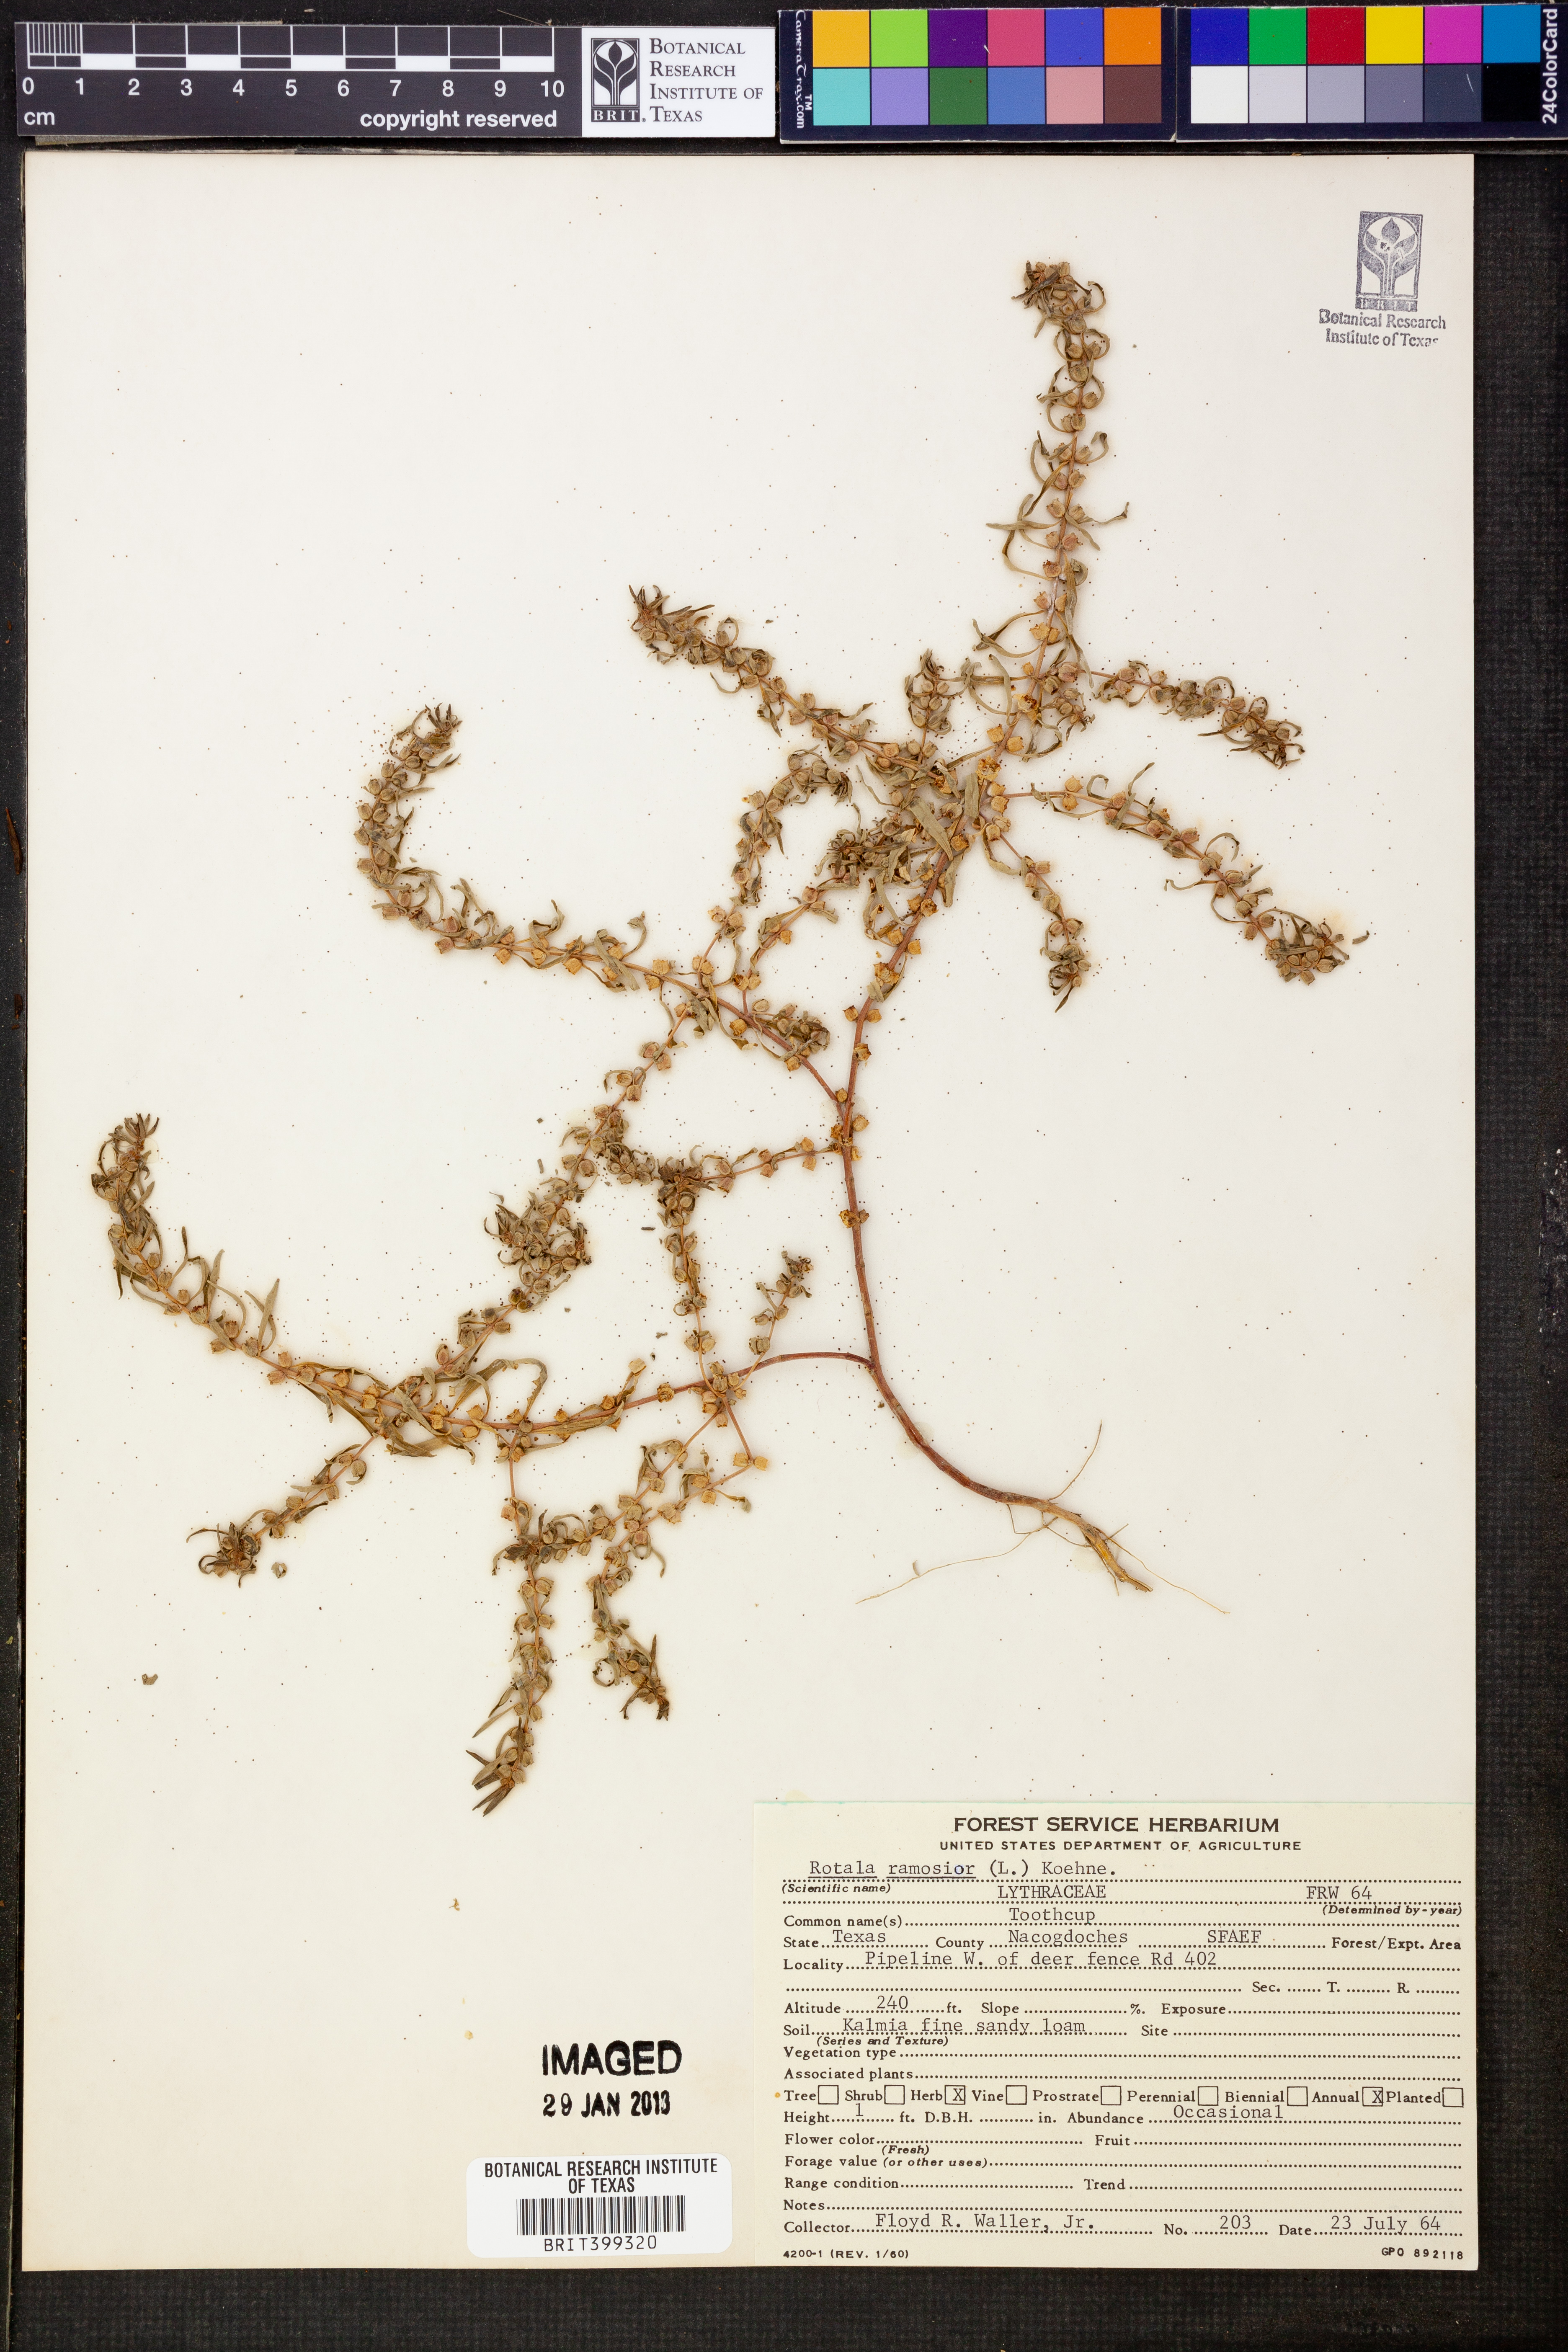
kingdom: Plantae
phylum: Tracheophyta
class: Magnoliopsida
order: Myrtales
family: Lythraceae
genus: Rotala
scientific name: Rotala ramosior
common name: Lowland rotala
